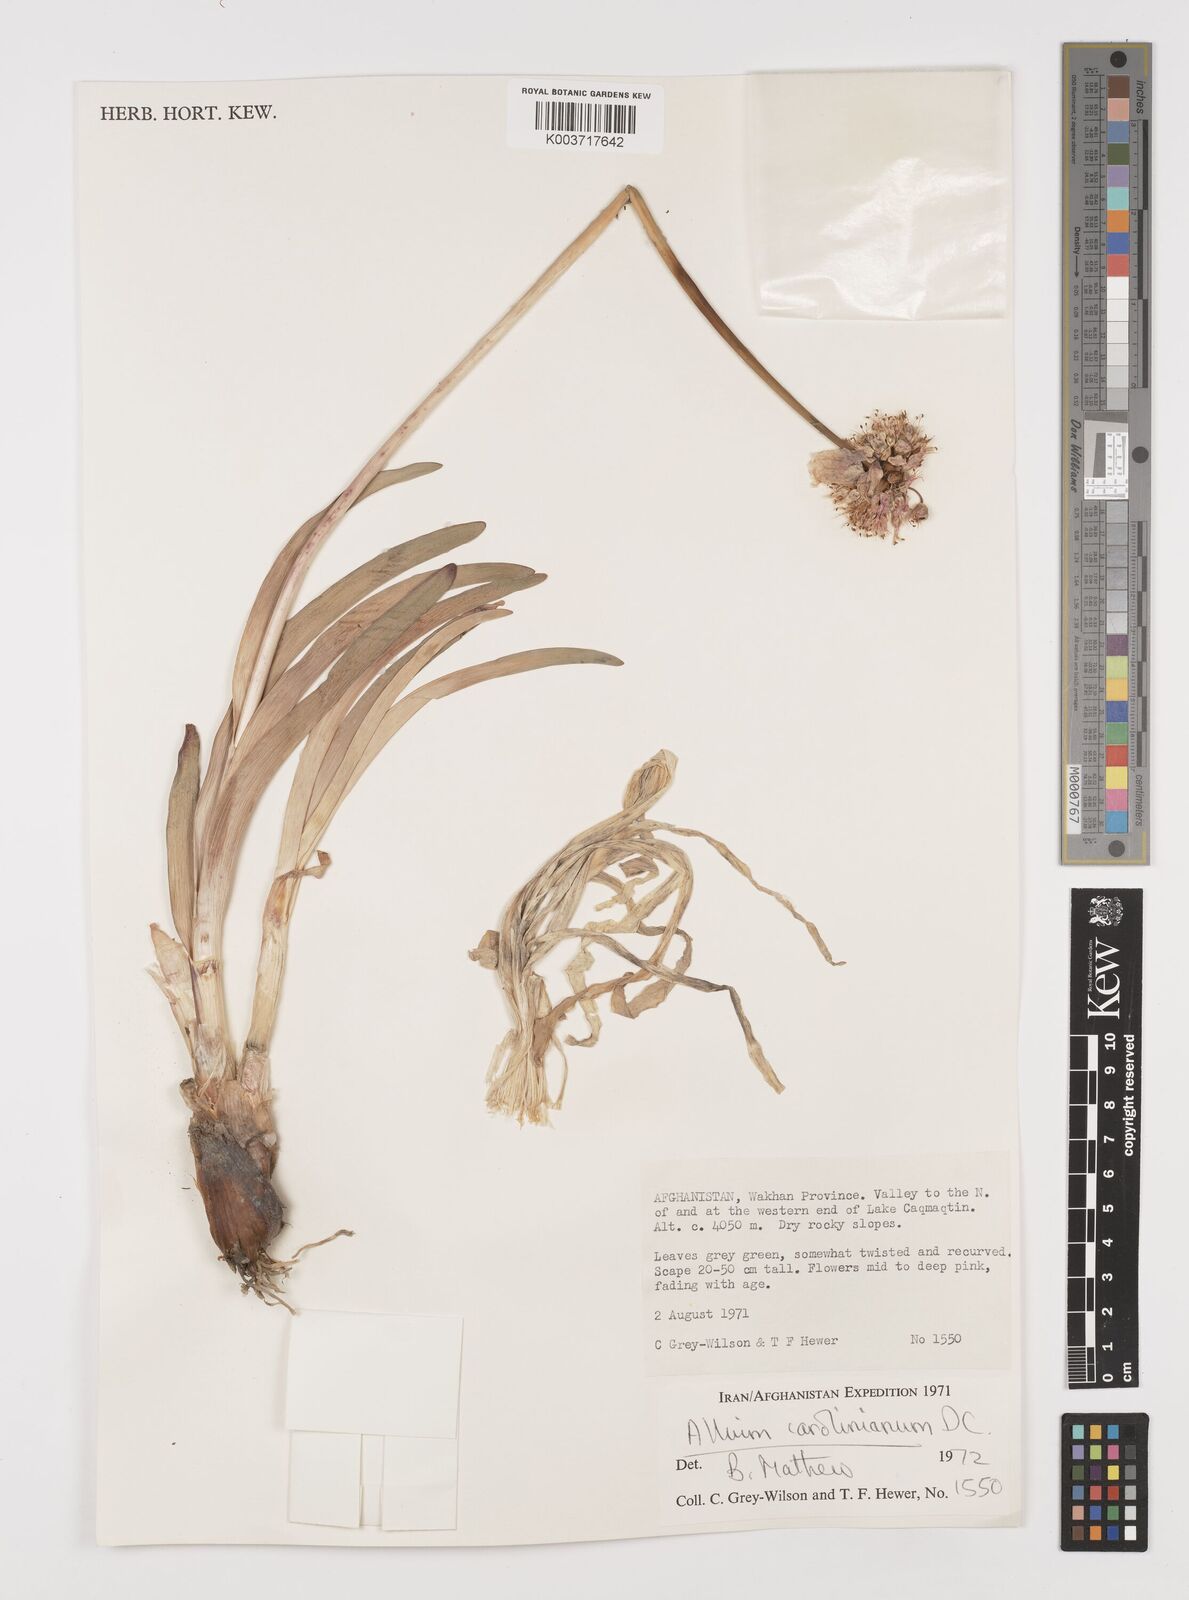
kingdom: Plantae
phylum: Tracheophyta
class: Liliopsida
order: Asparagales
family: Amaryllidaceae
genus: Allium
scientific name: Allium carolinianum
